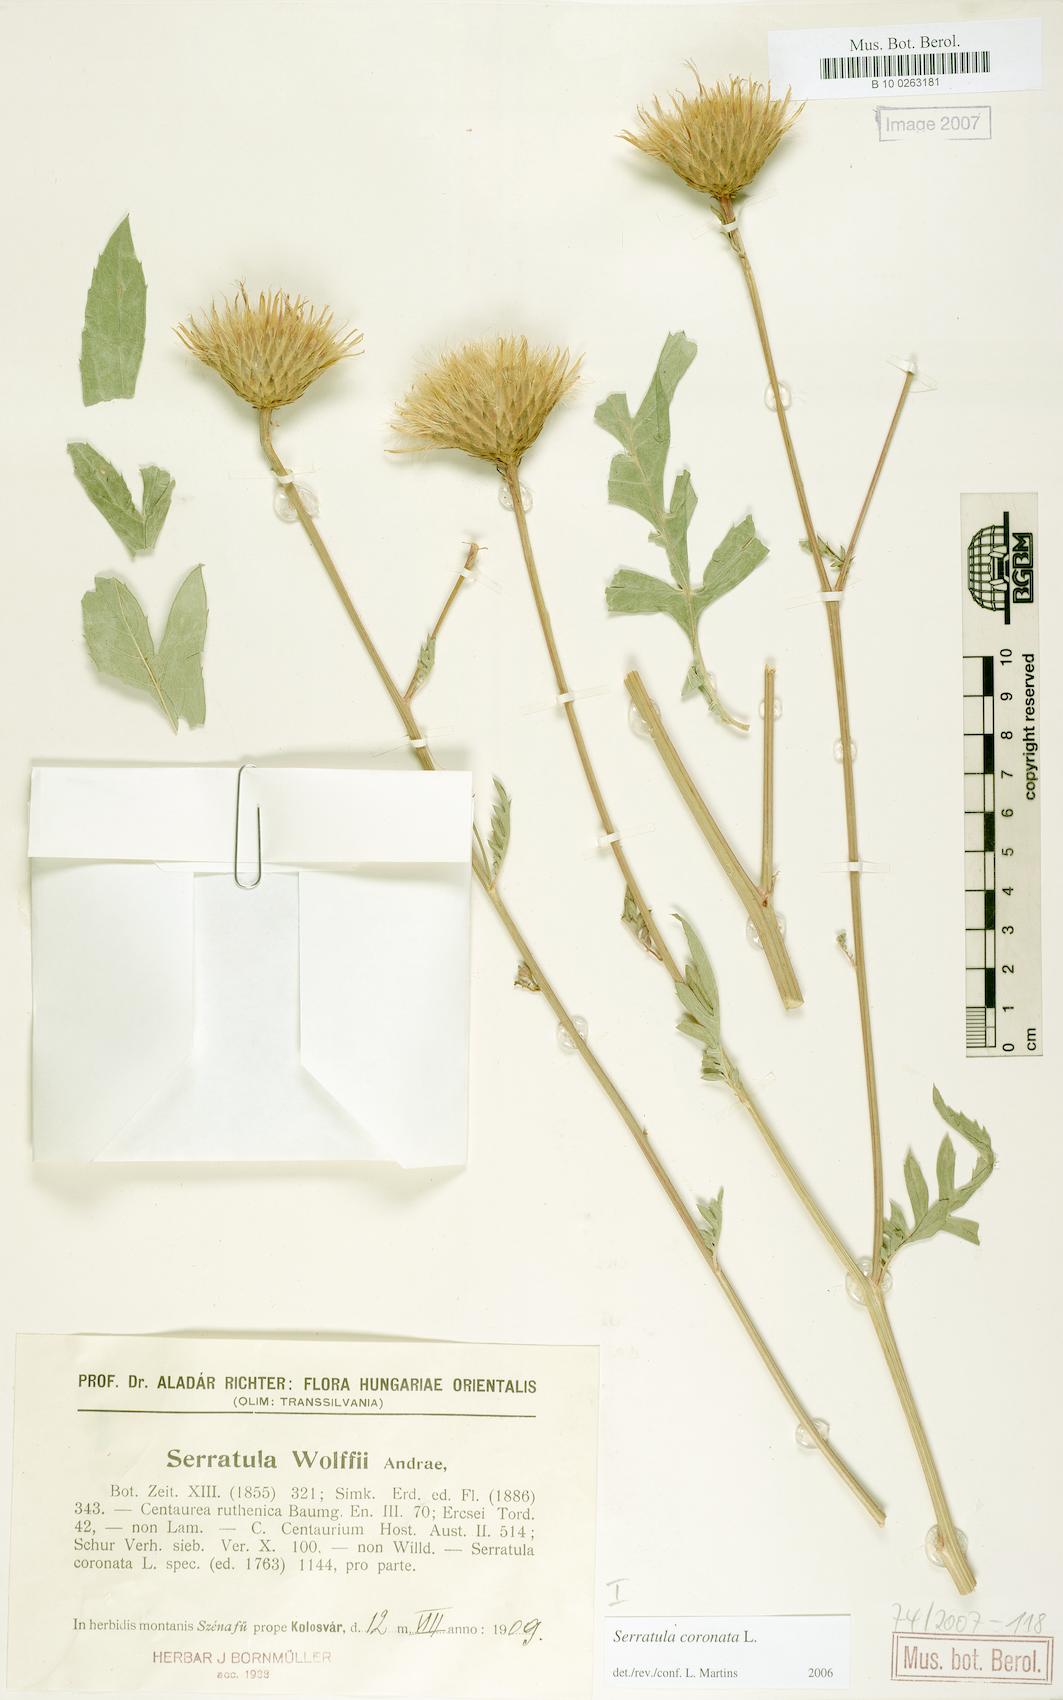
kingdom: Plantae
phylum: Tracheophyta
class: Magnoliopsida
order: Asterales
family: Asteraceae
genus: Serratula
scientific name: Serratula coronata
